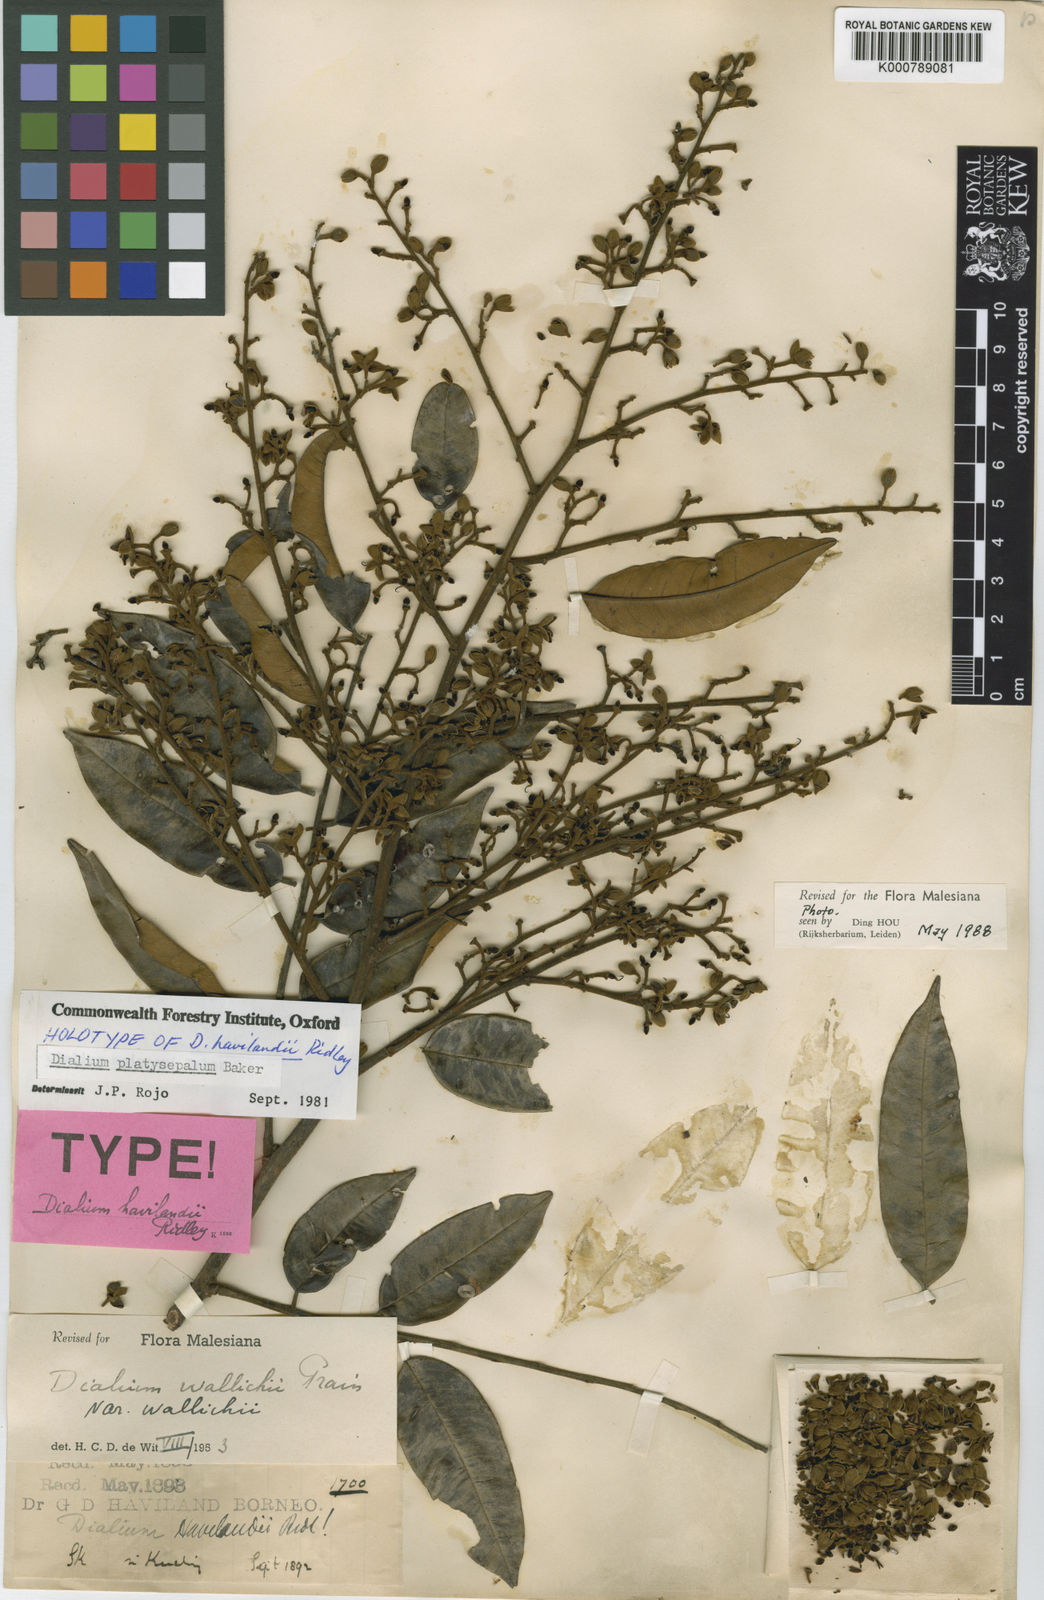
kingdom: Plantae
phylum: Tracheophyta
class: Magnoliopsida
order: Fabales
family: Fabaceae
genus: Dialium
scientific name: Dialium platysepalum
